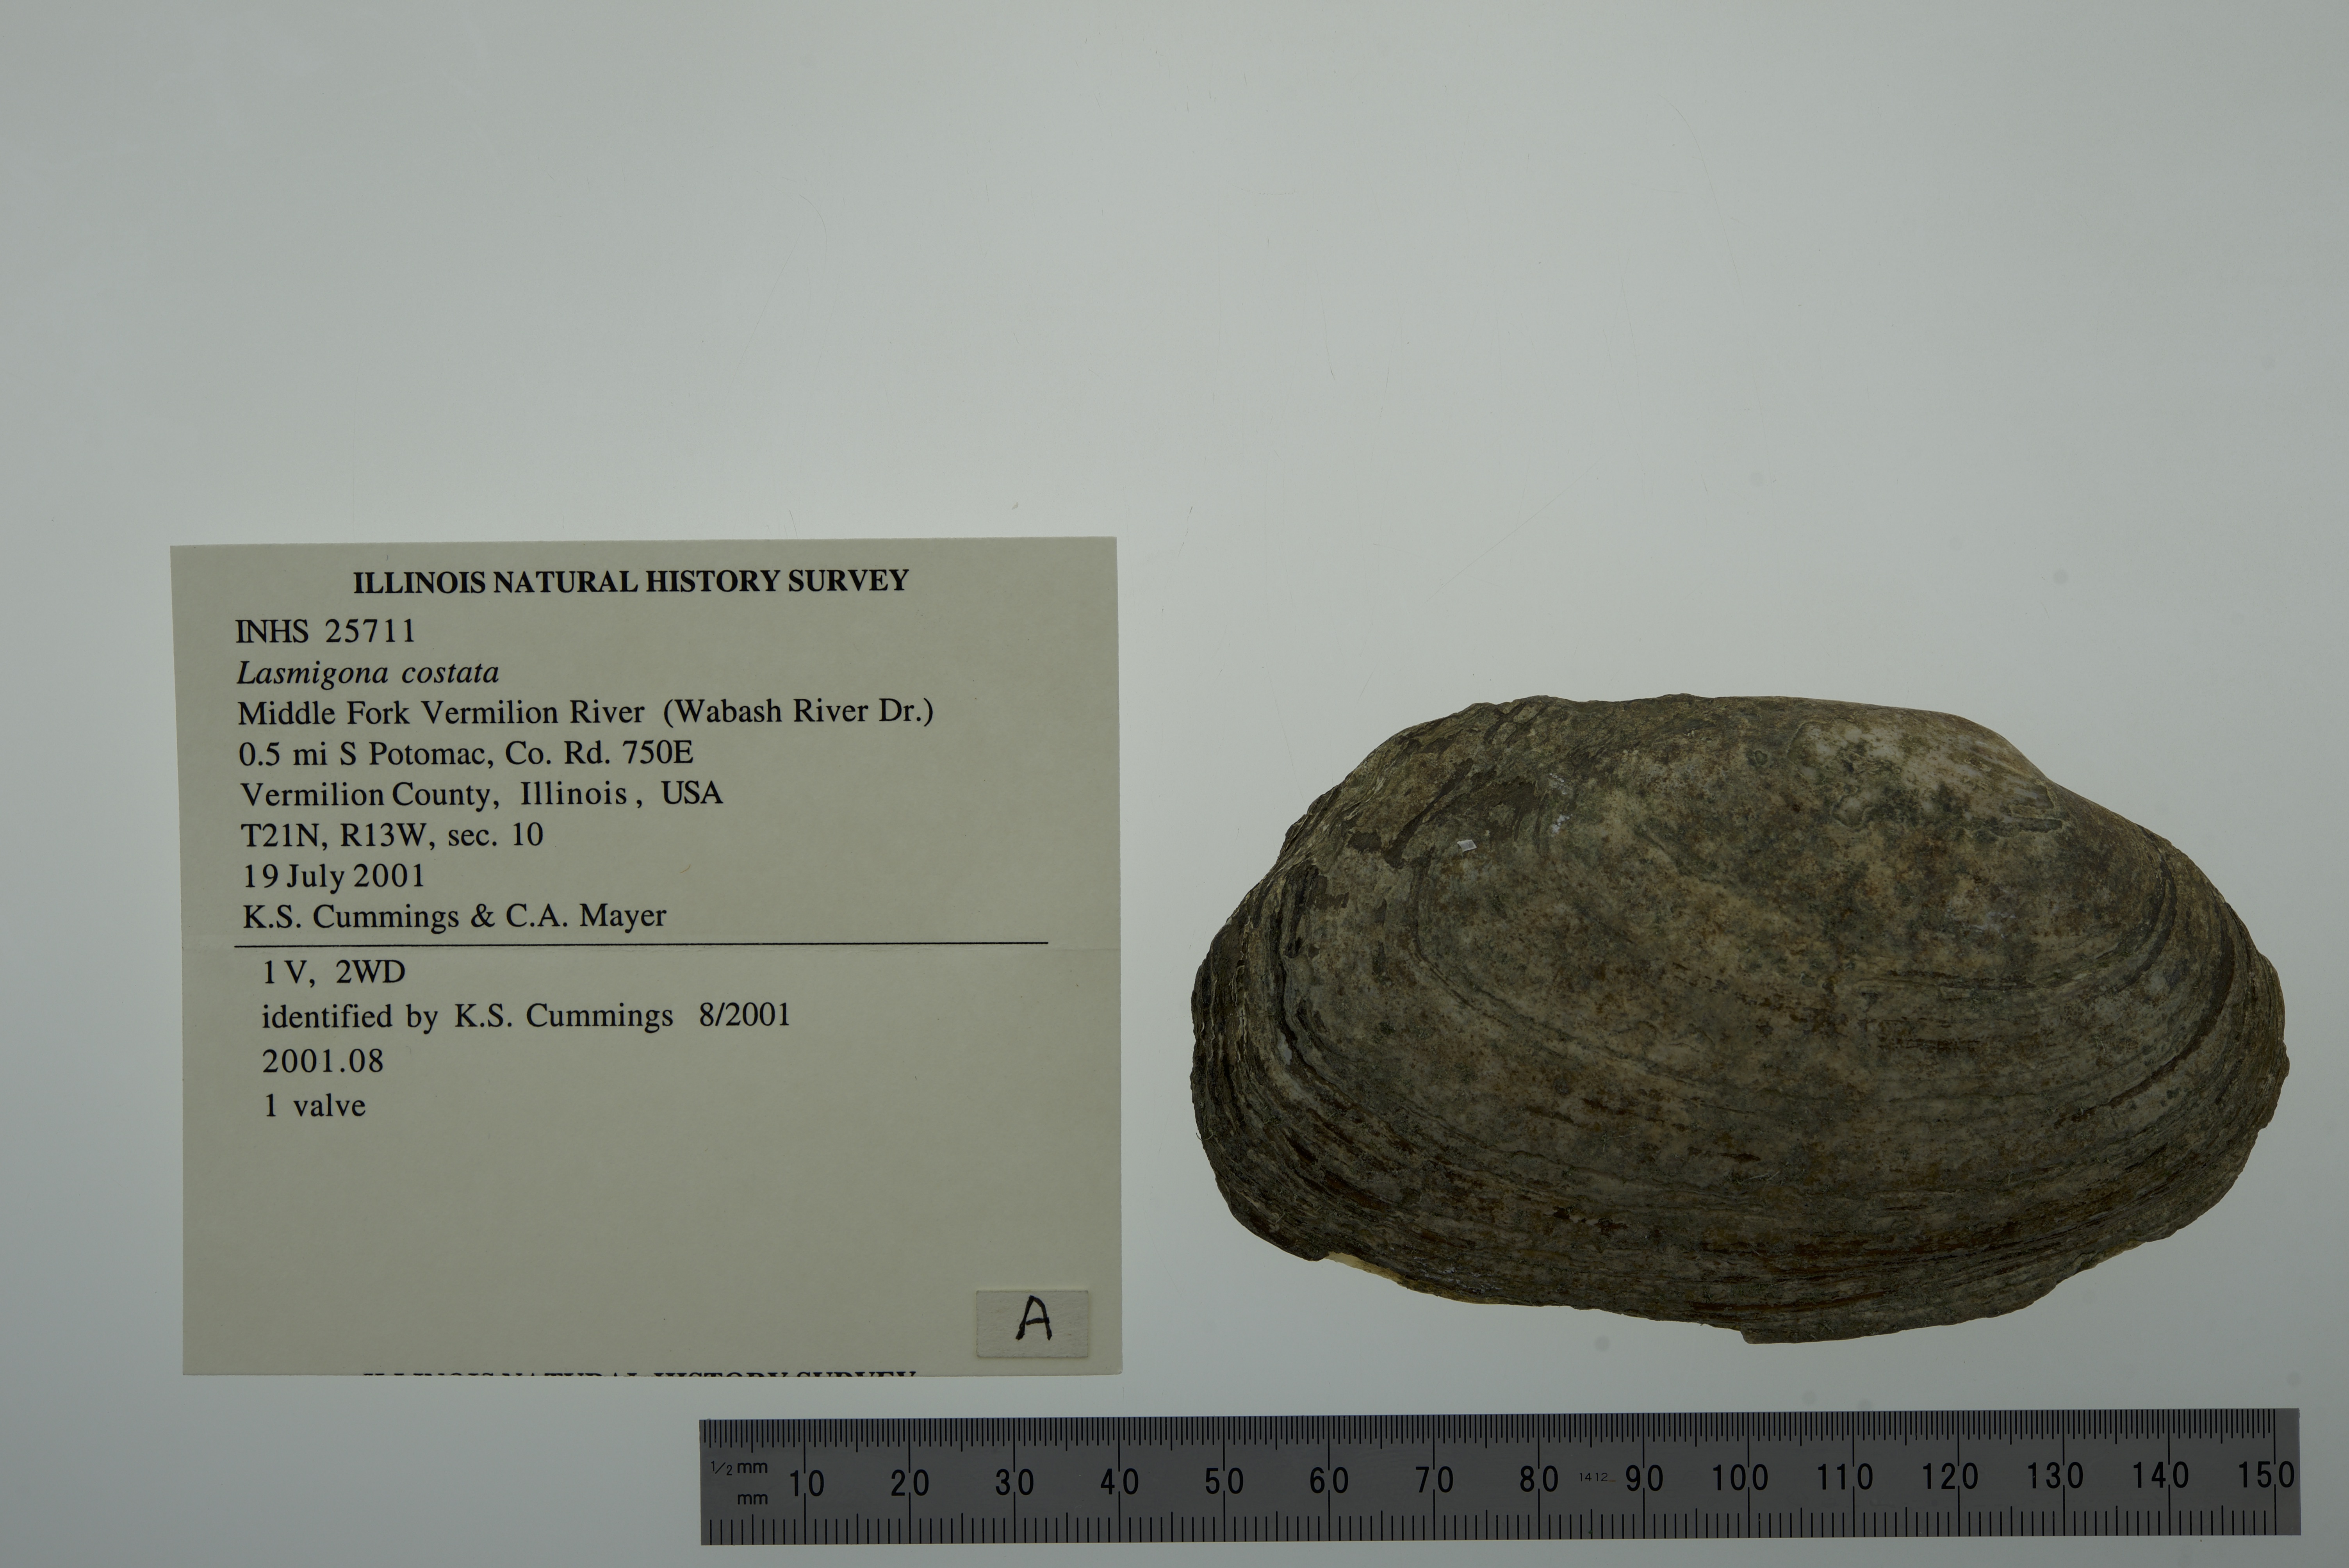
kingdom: Animalia
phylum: Mollusca
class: Bivalvia
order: Unionida
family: Unionidae
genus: Lasmigona
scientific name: Lasmigona costata
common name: Flutedshell
